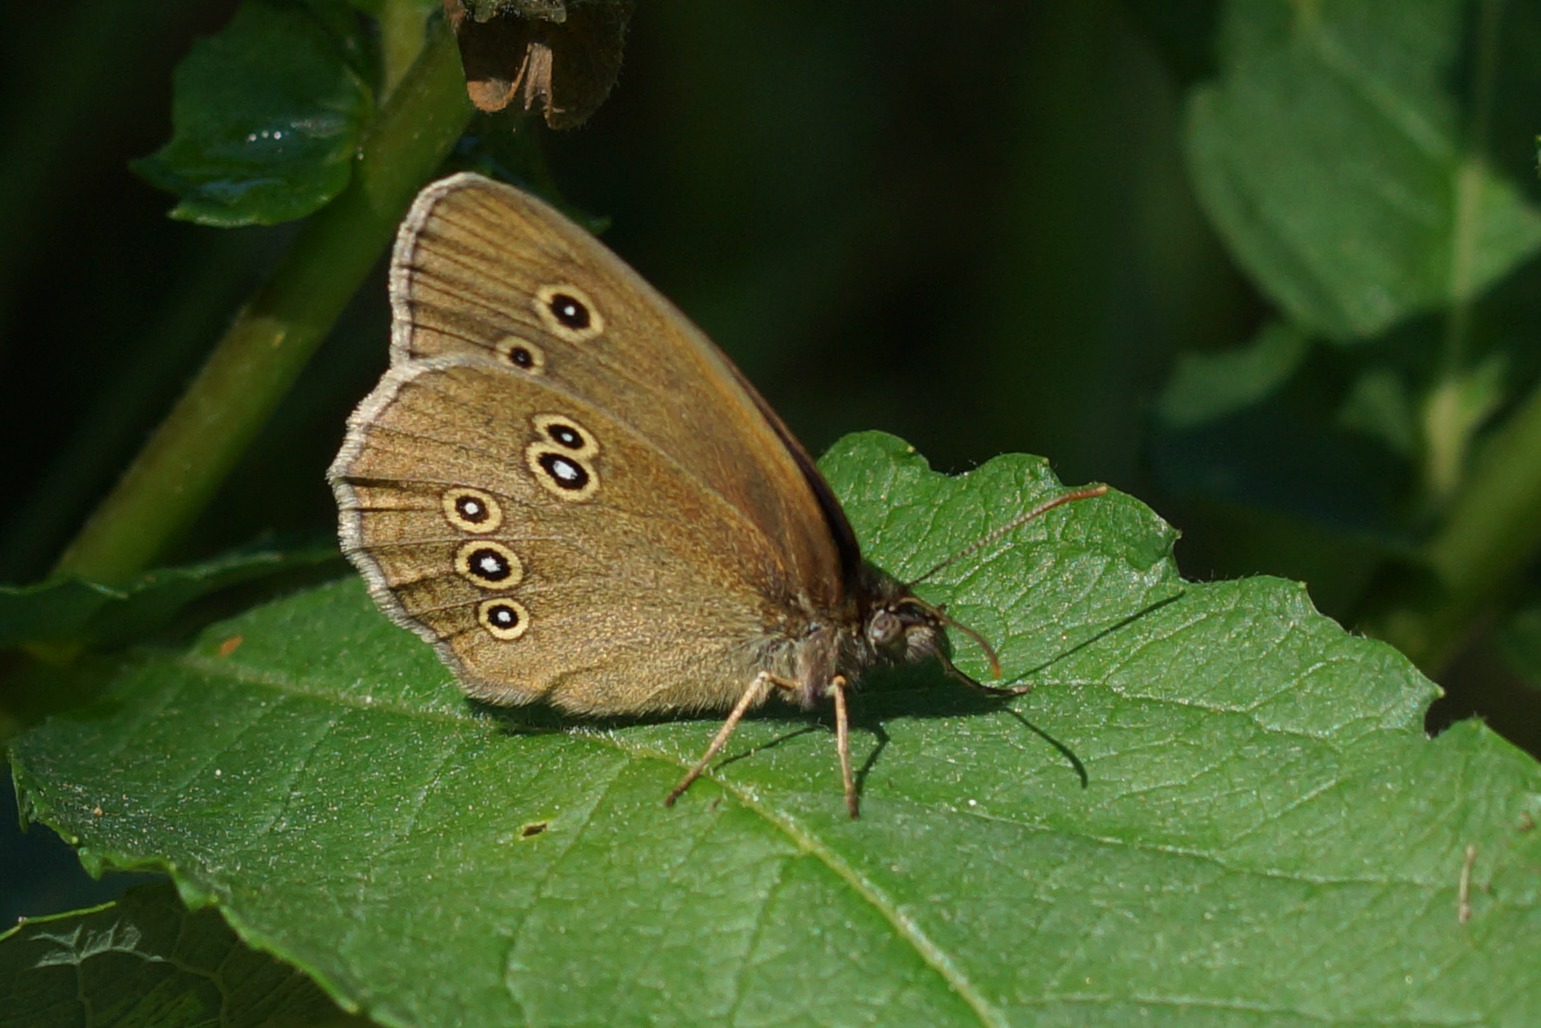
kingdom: Animalia
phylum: Arthropoda
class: Insecta
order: Lepidoptera
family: Nymphalidae
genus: Aphantopus
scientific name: Aphantopus hyperantus
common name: Engrandøje
